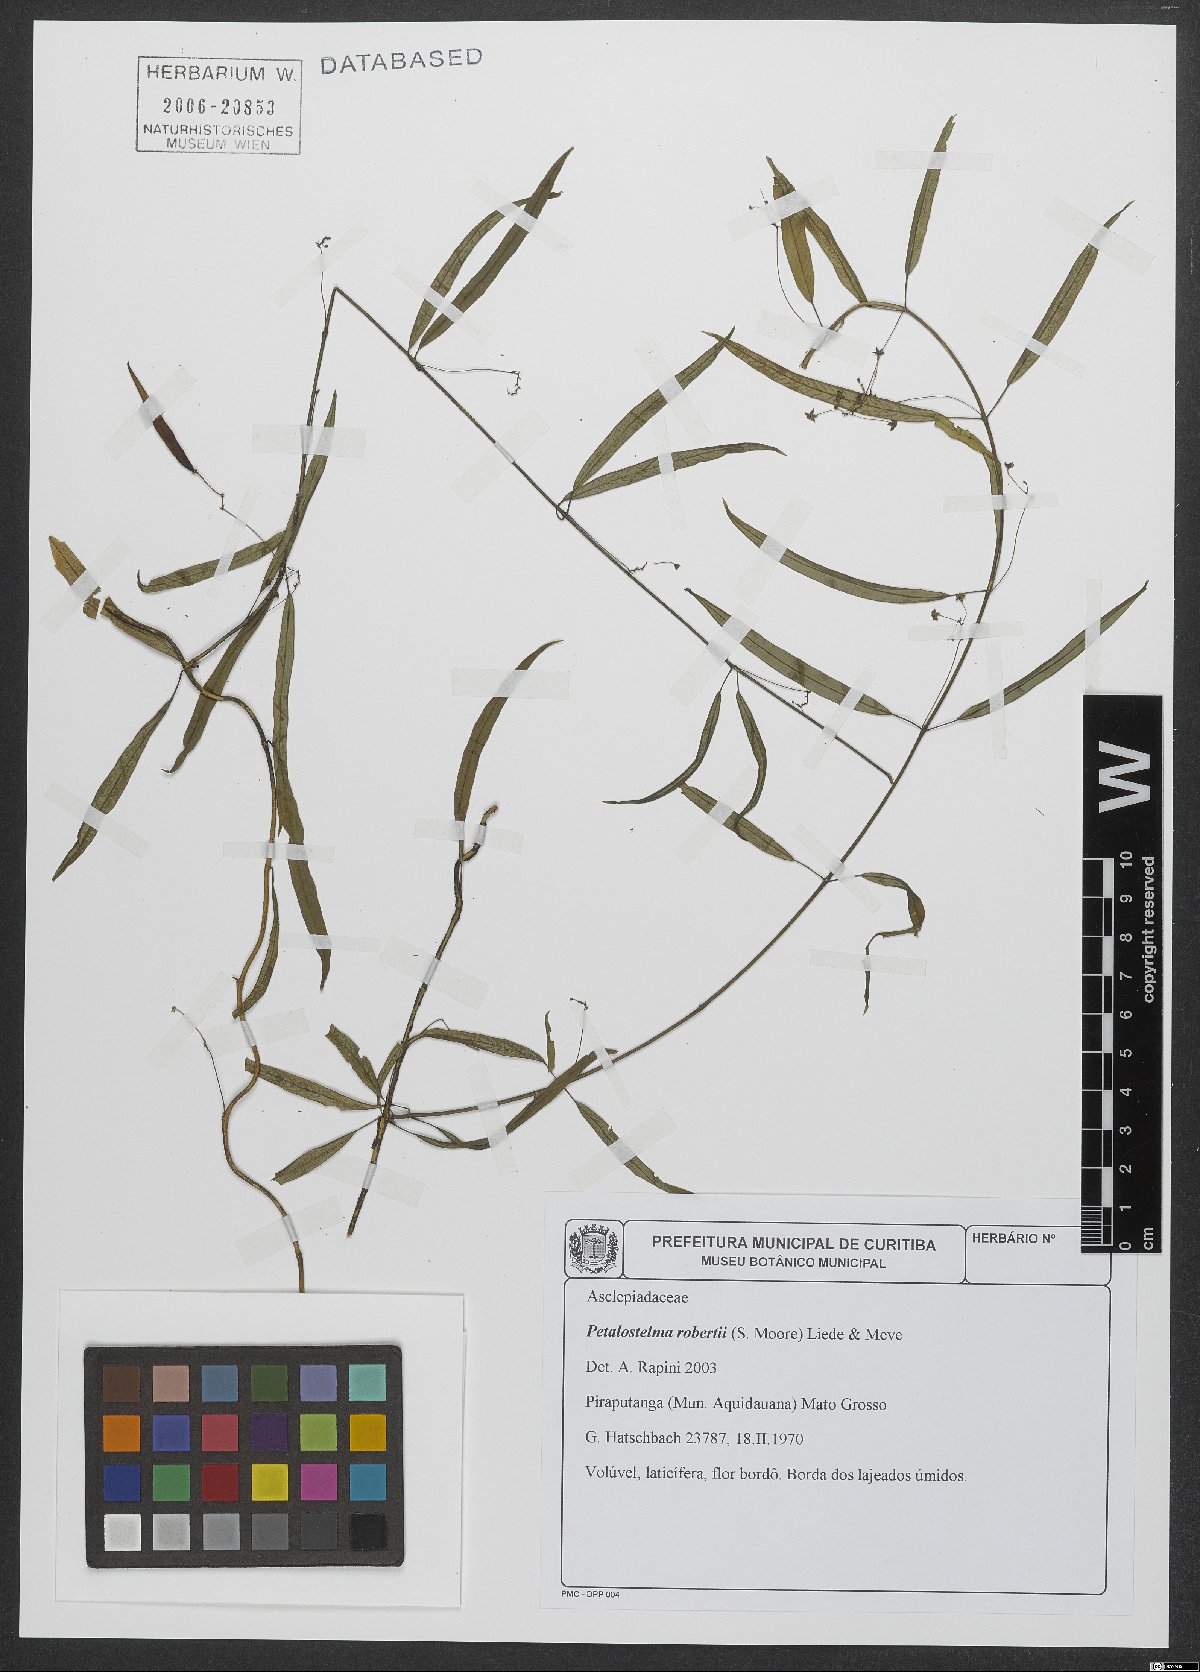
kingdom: Plantae
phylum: Tracheophyta
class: Magnoliopsida
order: Gentianales
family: Apocynaceae
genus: Petalostelma
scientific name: Petalostelma robertii
